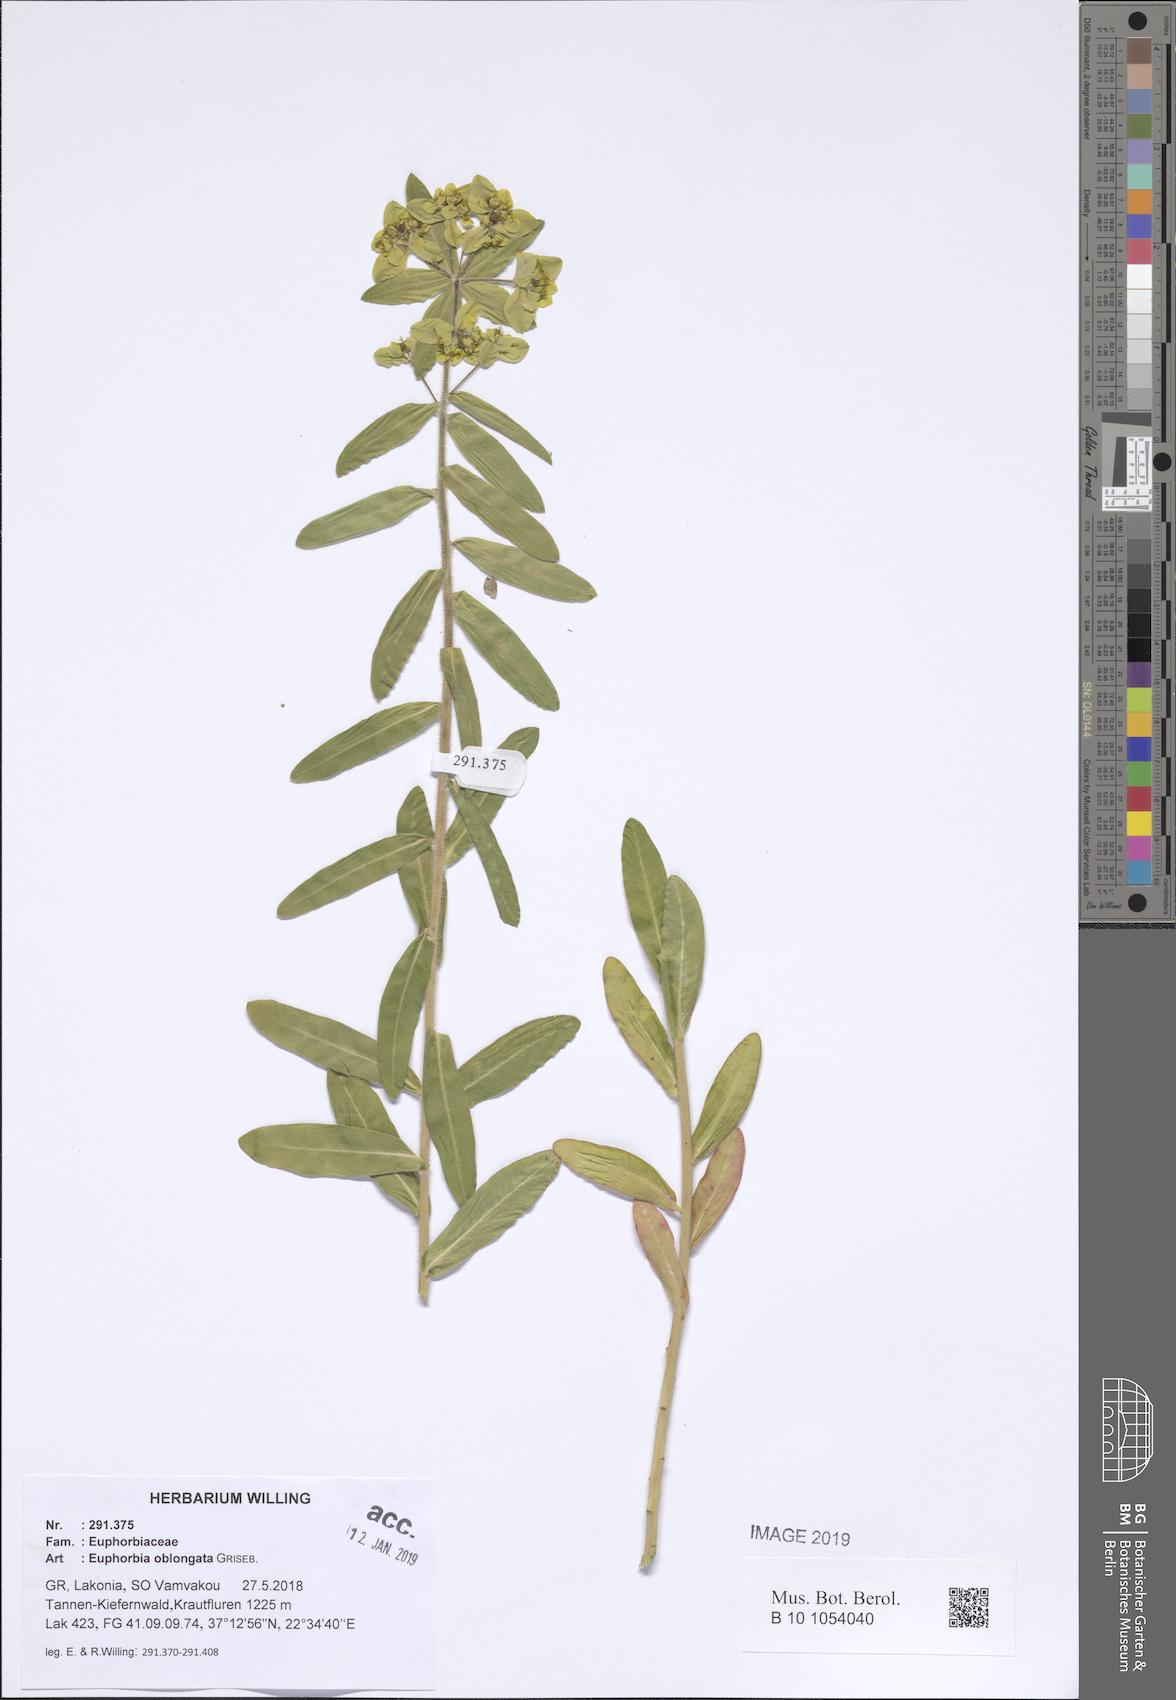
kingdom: Plantae
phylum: Tracheophyta
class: Magnoliopsida
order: Malpighiales
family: Euphorbiaceae
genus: Euphorbia
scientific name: Euphorbia oblongata
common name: Balkan spurge
